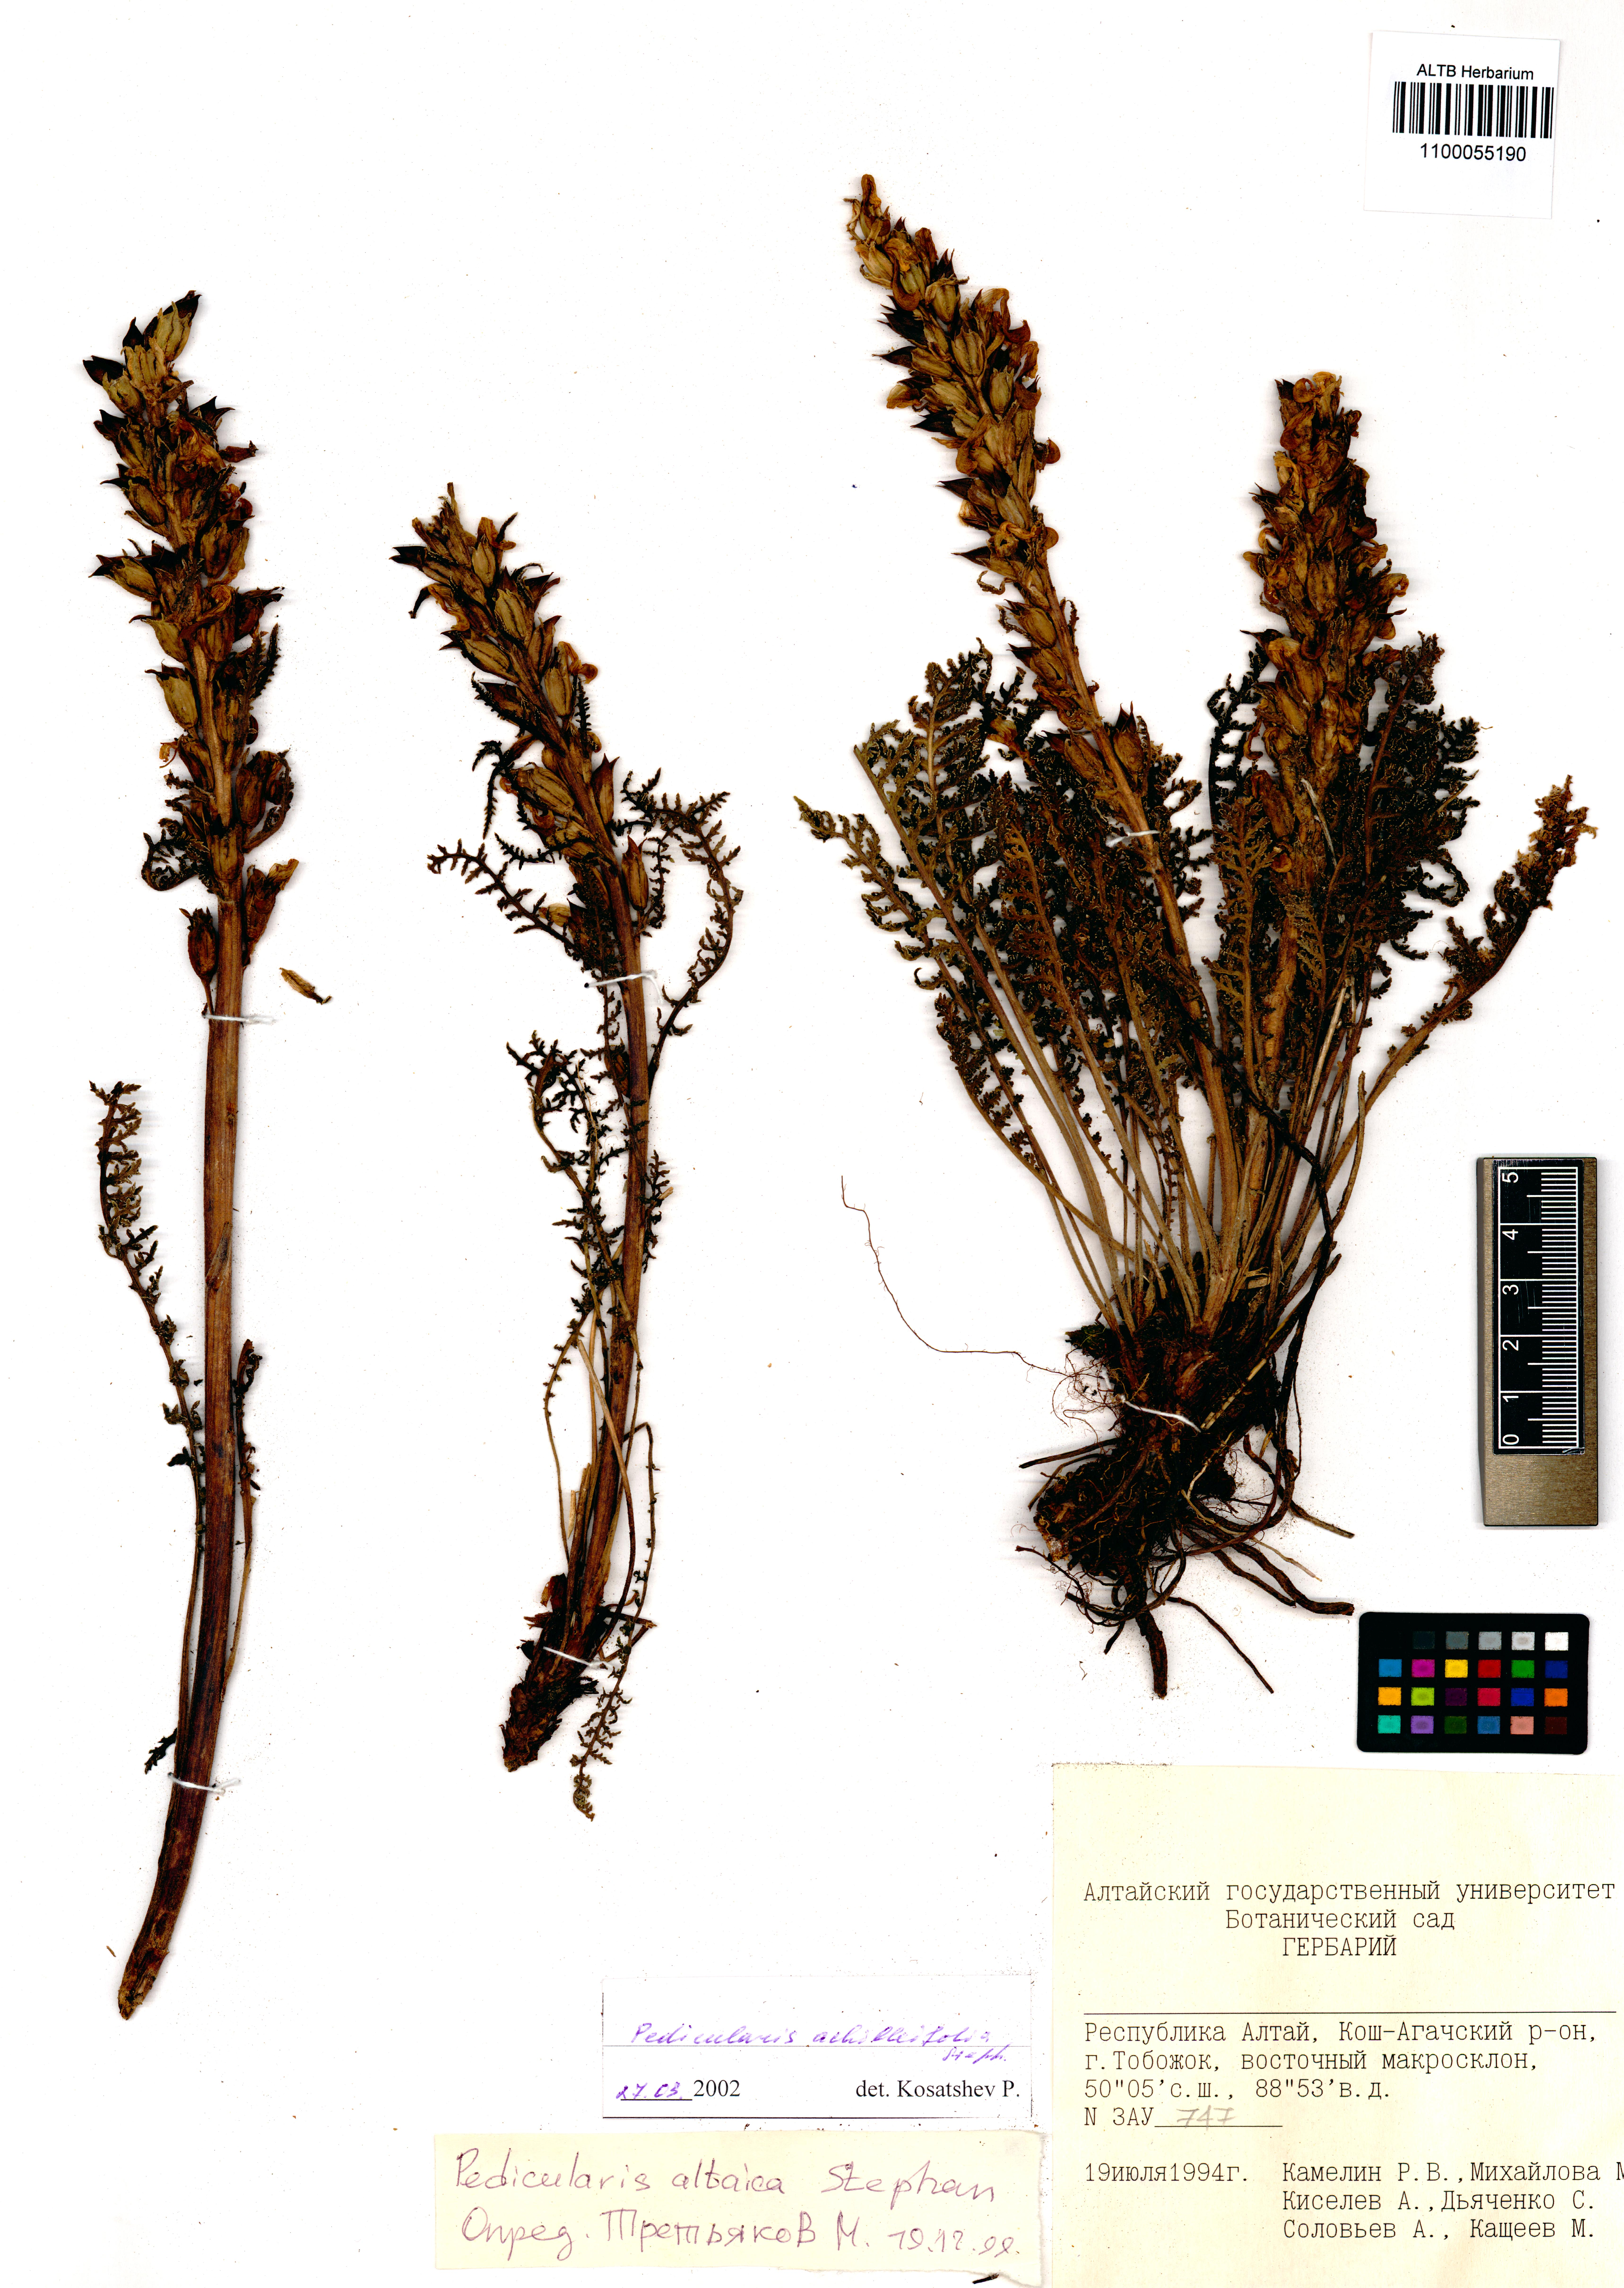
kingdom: Plantae
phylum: Tracheophyta
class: Magnoliopsida
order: Lamiales
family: Orobanchaceae
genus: Pedicularis
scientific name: Pedicularis achilleifolia
